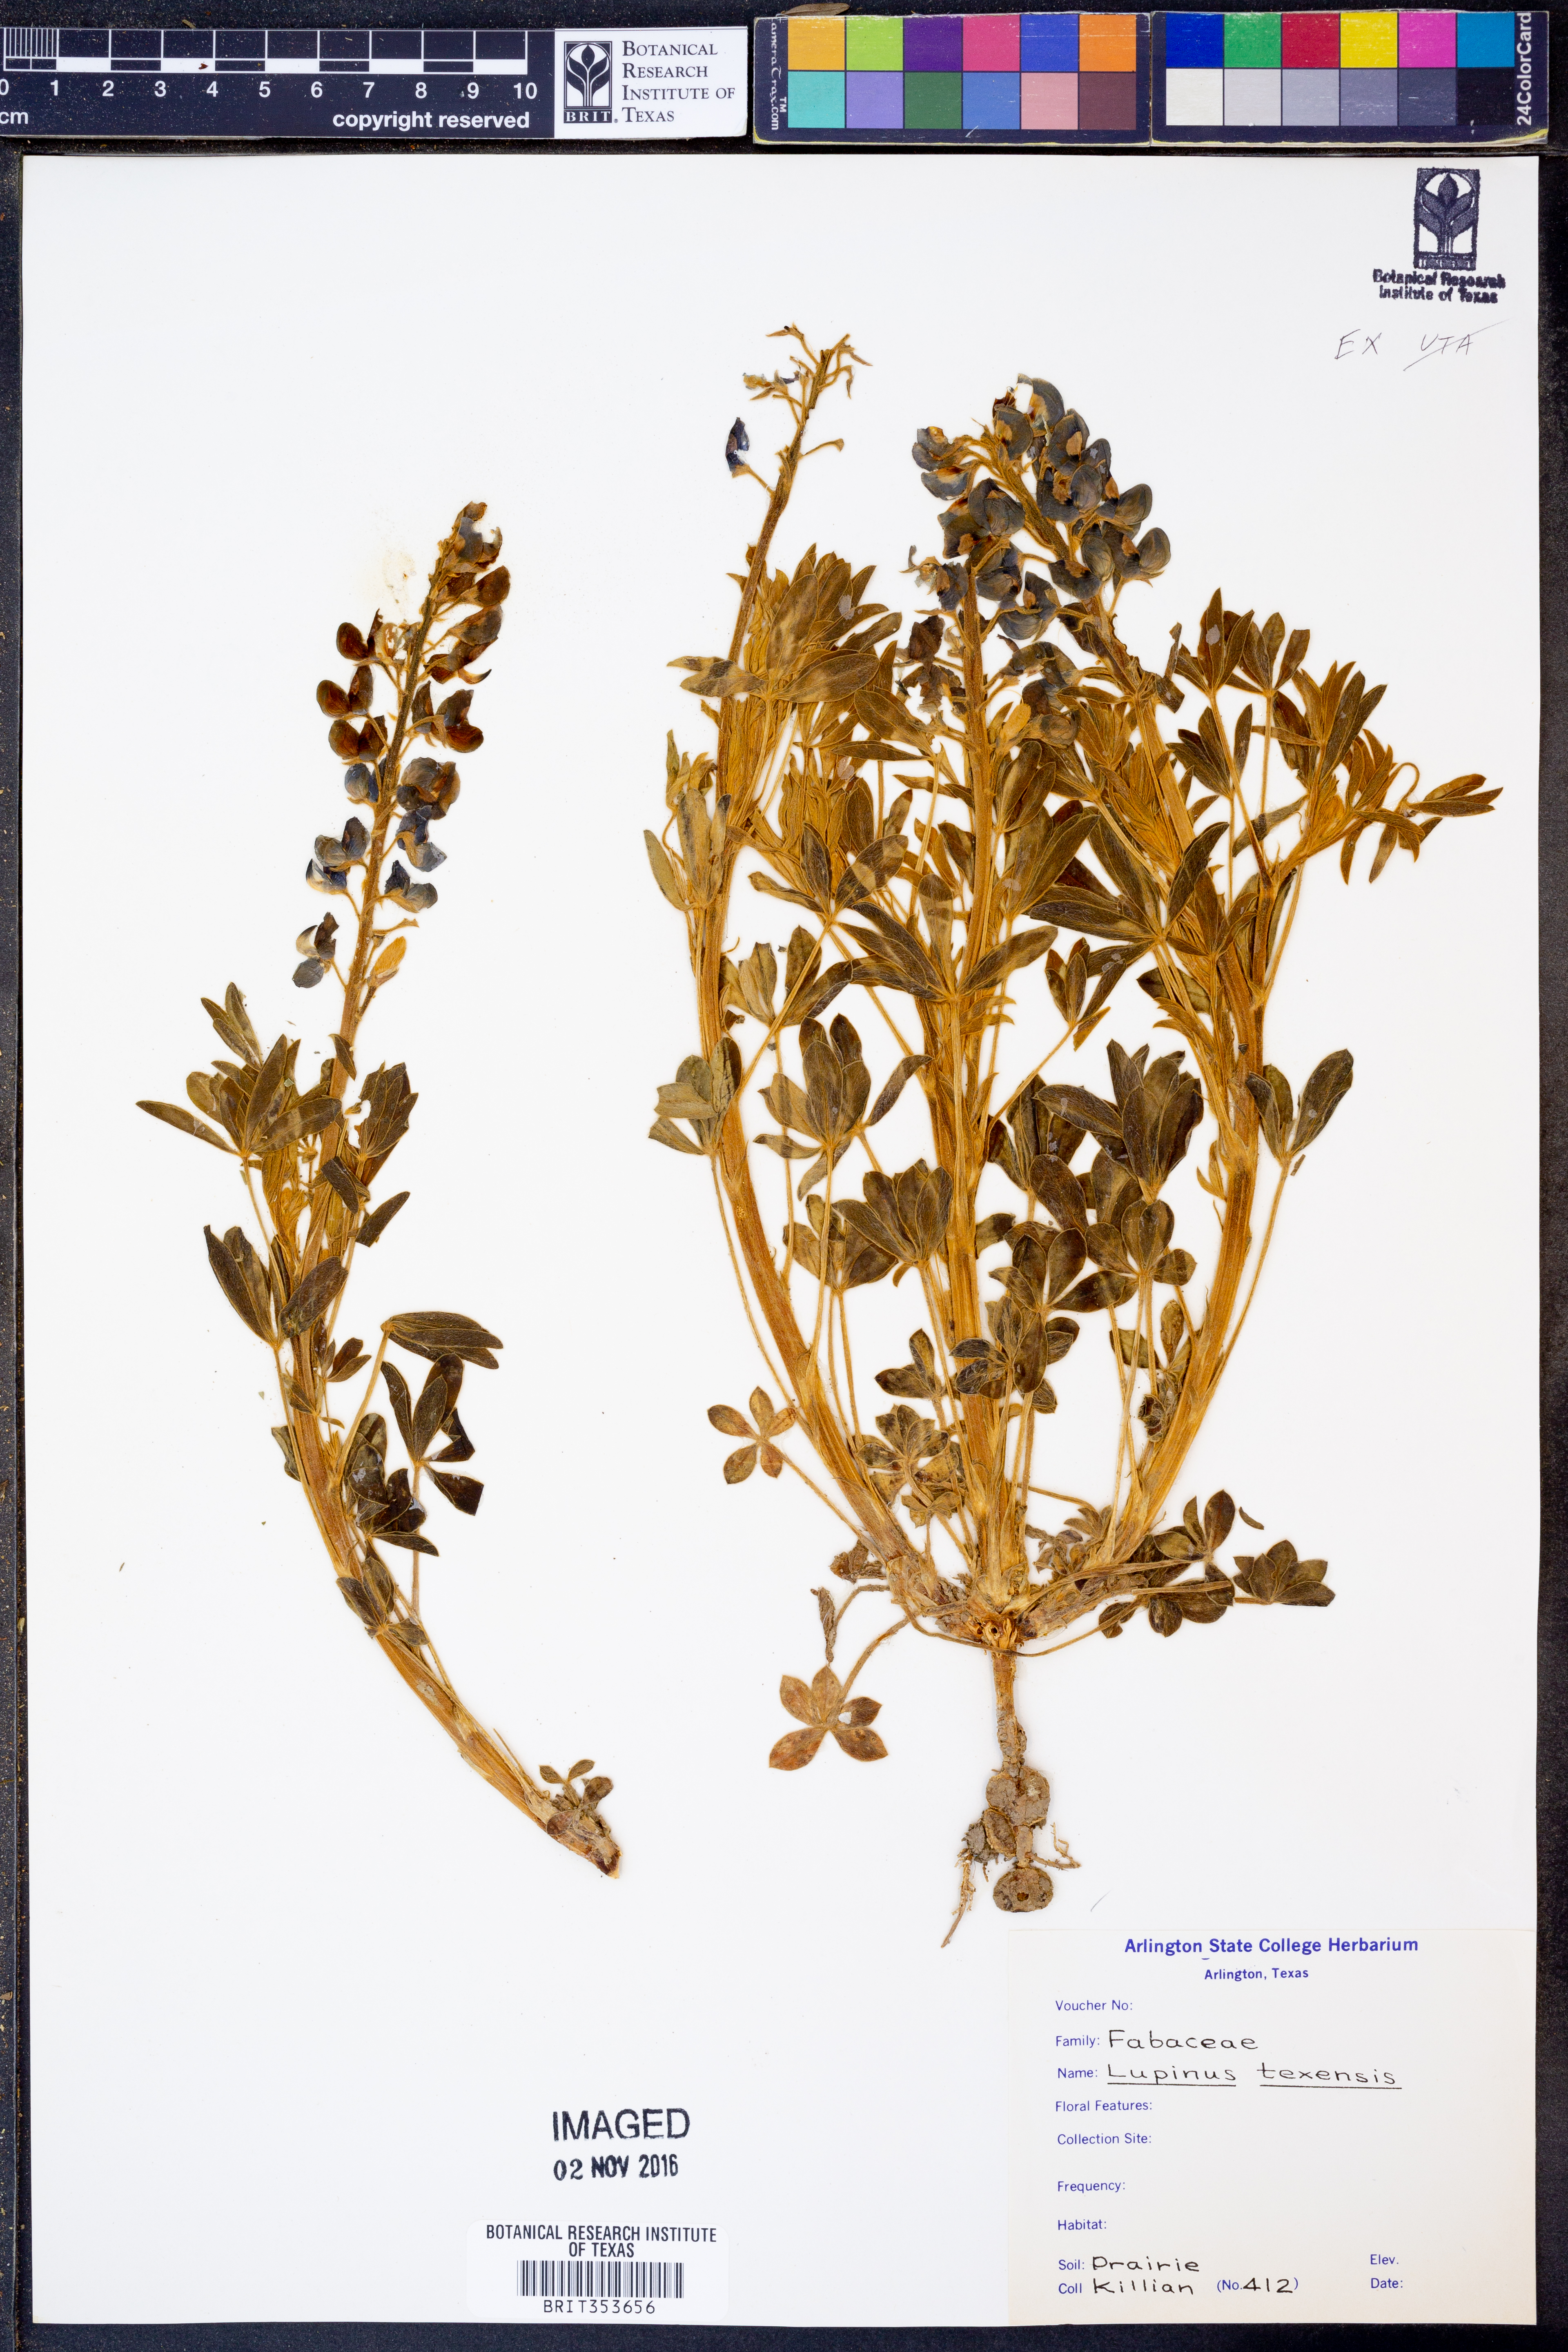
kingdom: Plantae
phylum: Tracheophyta
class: Magnoliopsida
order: Fabales
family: Fabaceae
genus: Lupinus
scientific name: Lupinus texensis
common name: Texas bluebonnet
